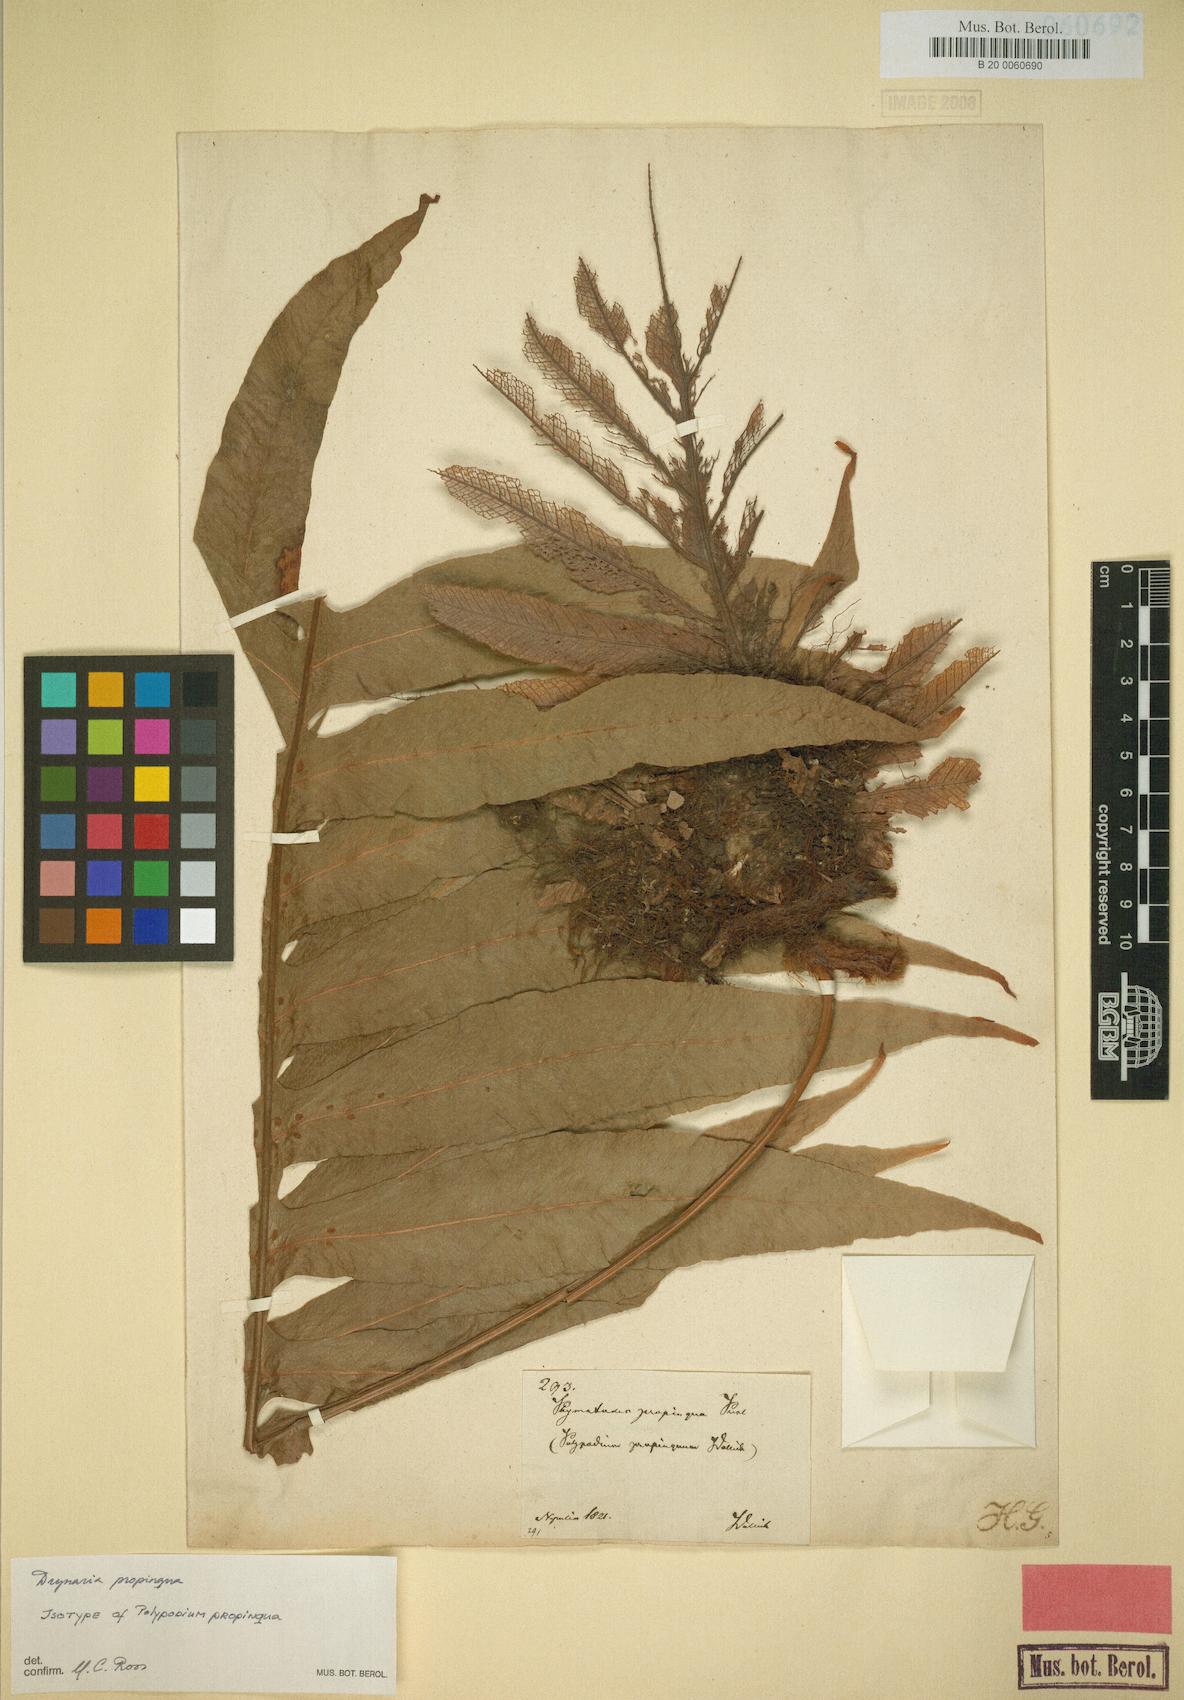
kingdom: Plantae
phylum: Tracheophyta
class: Polypodiopsida
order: Polypodiales
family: Polypodiaceae
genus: Drynaria
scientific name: Drynaria propinqua
